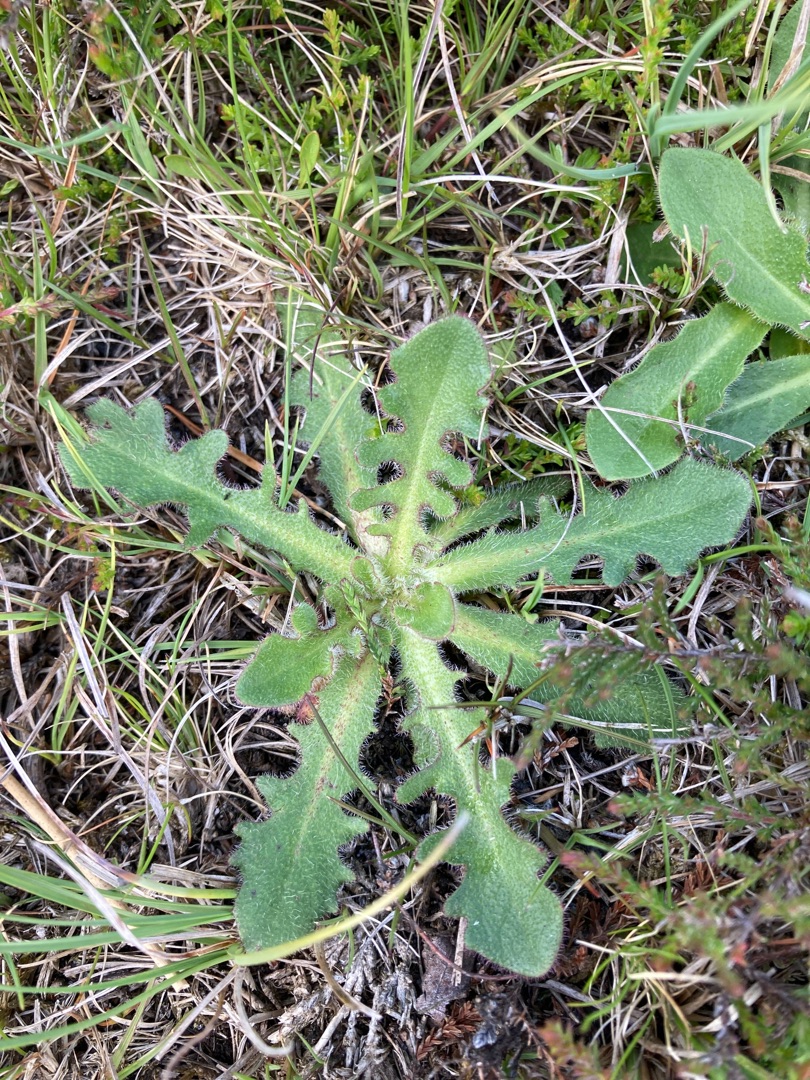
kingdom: Plantae
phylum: Tracheophyta
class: Magnoliopsida
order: Asterales
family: Asteraceae
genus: Hypochaeris
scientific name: Hypochaeris radicata
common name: Almindelig kongepen
